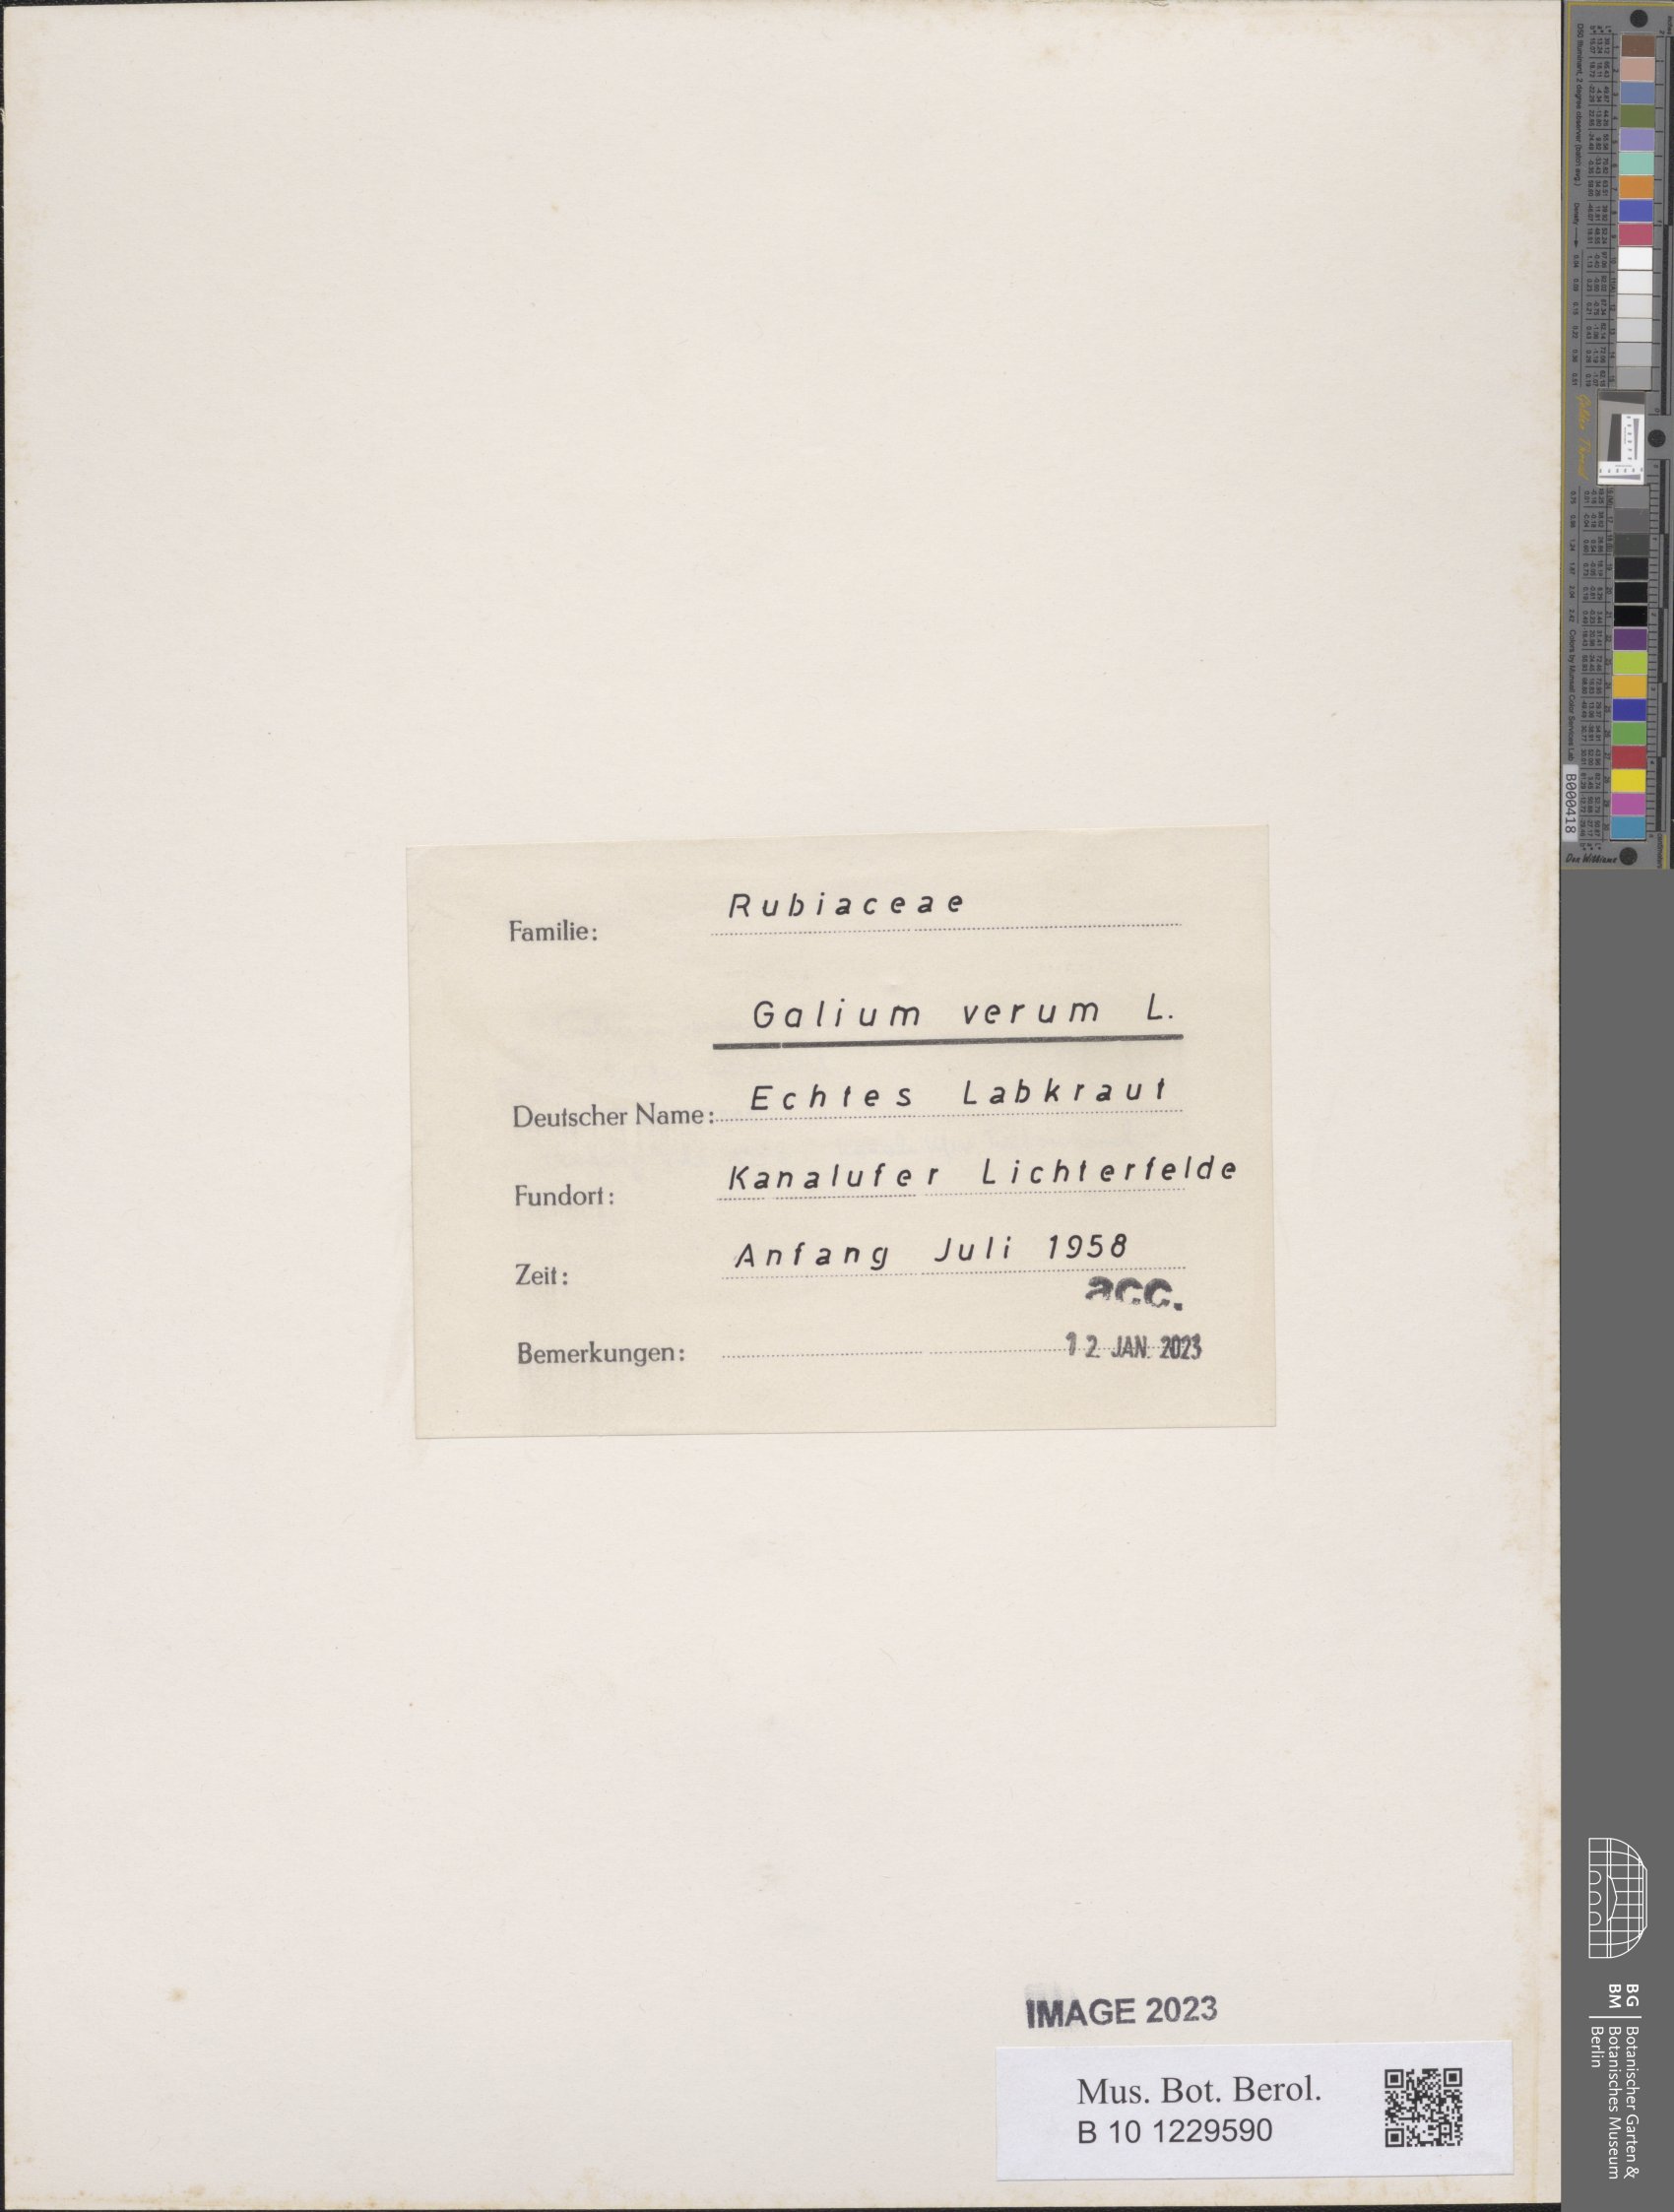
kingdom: Plantae
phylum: Tracheophyta
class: Magnoliopsida
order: Gentianales
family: Rubiaceae
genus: Galium
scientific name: Galium verum
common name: Lady's bedstraw
